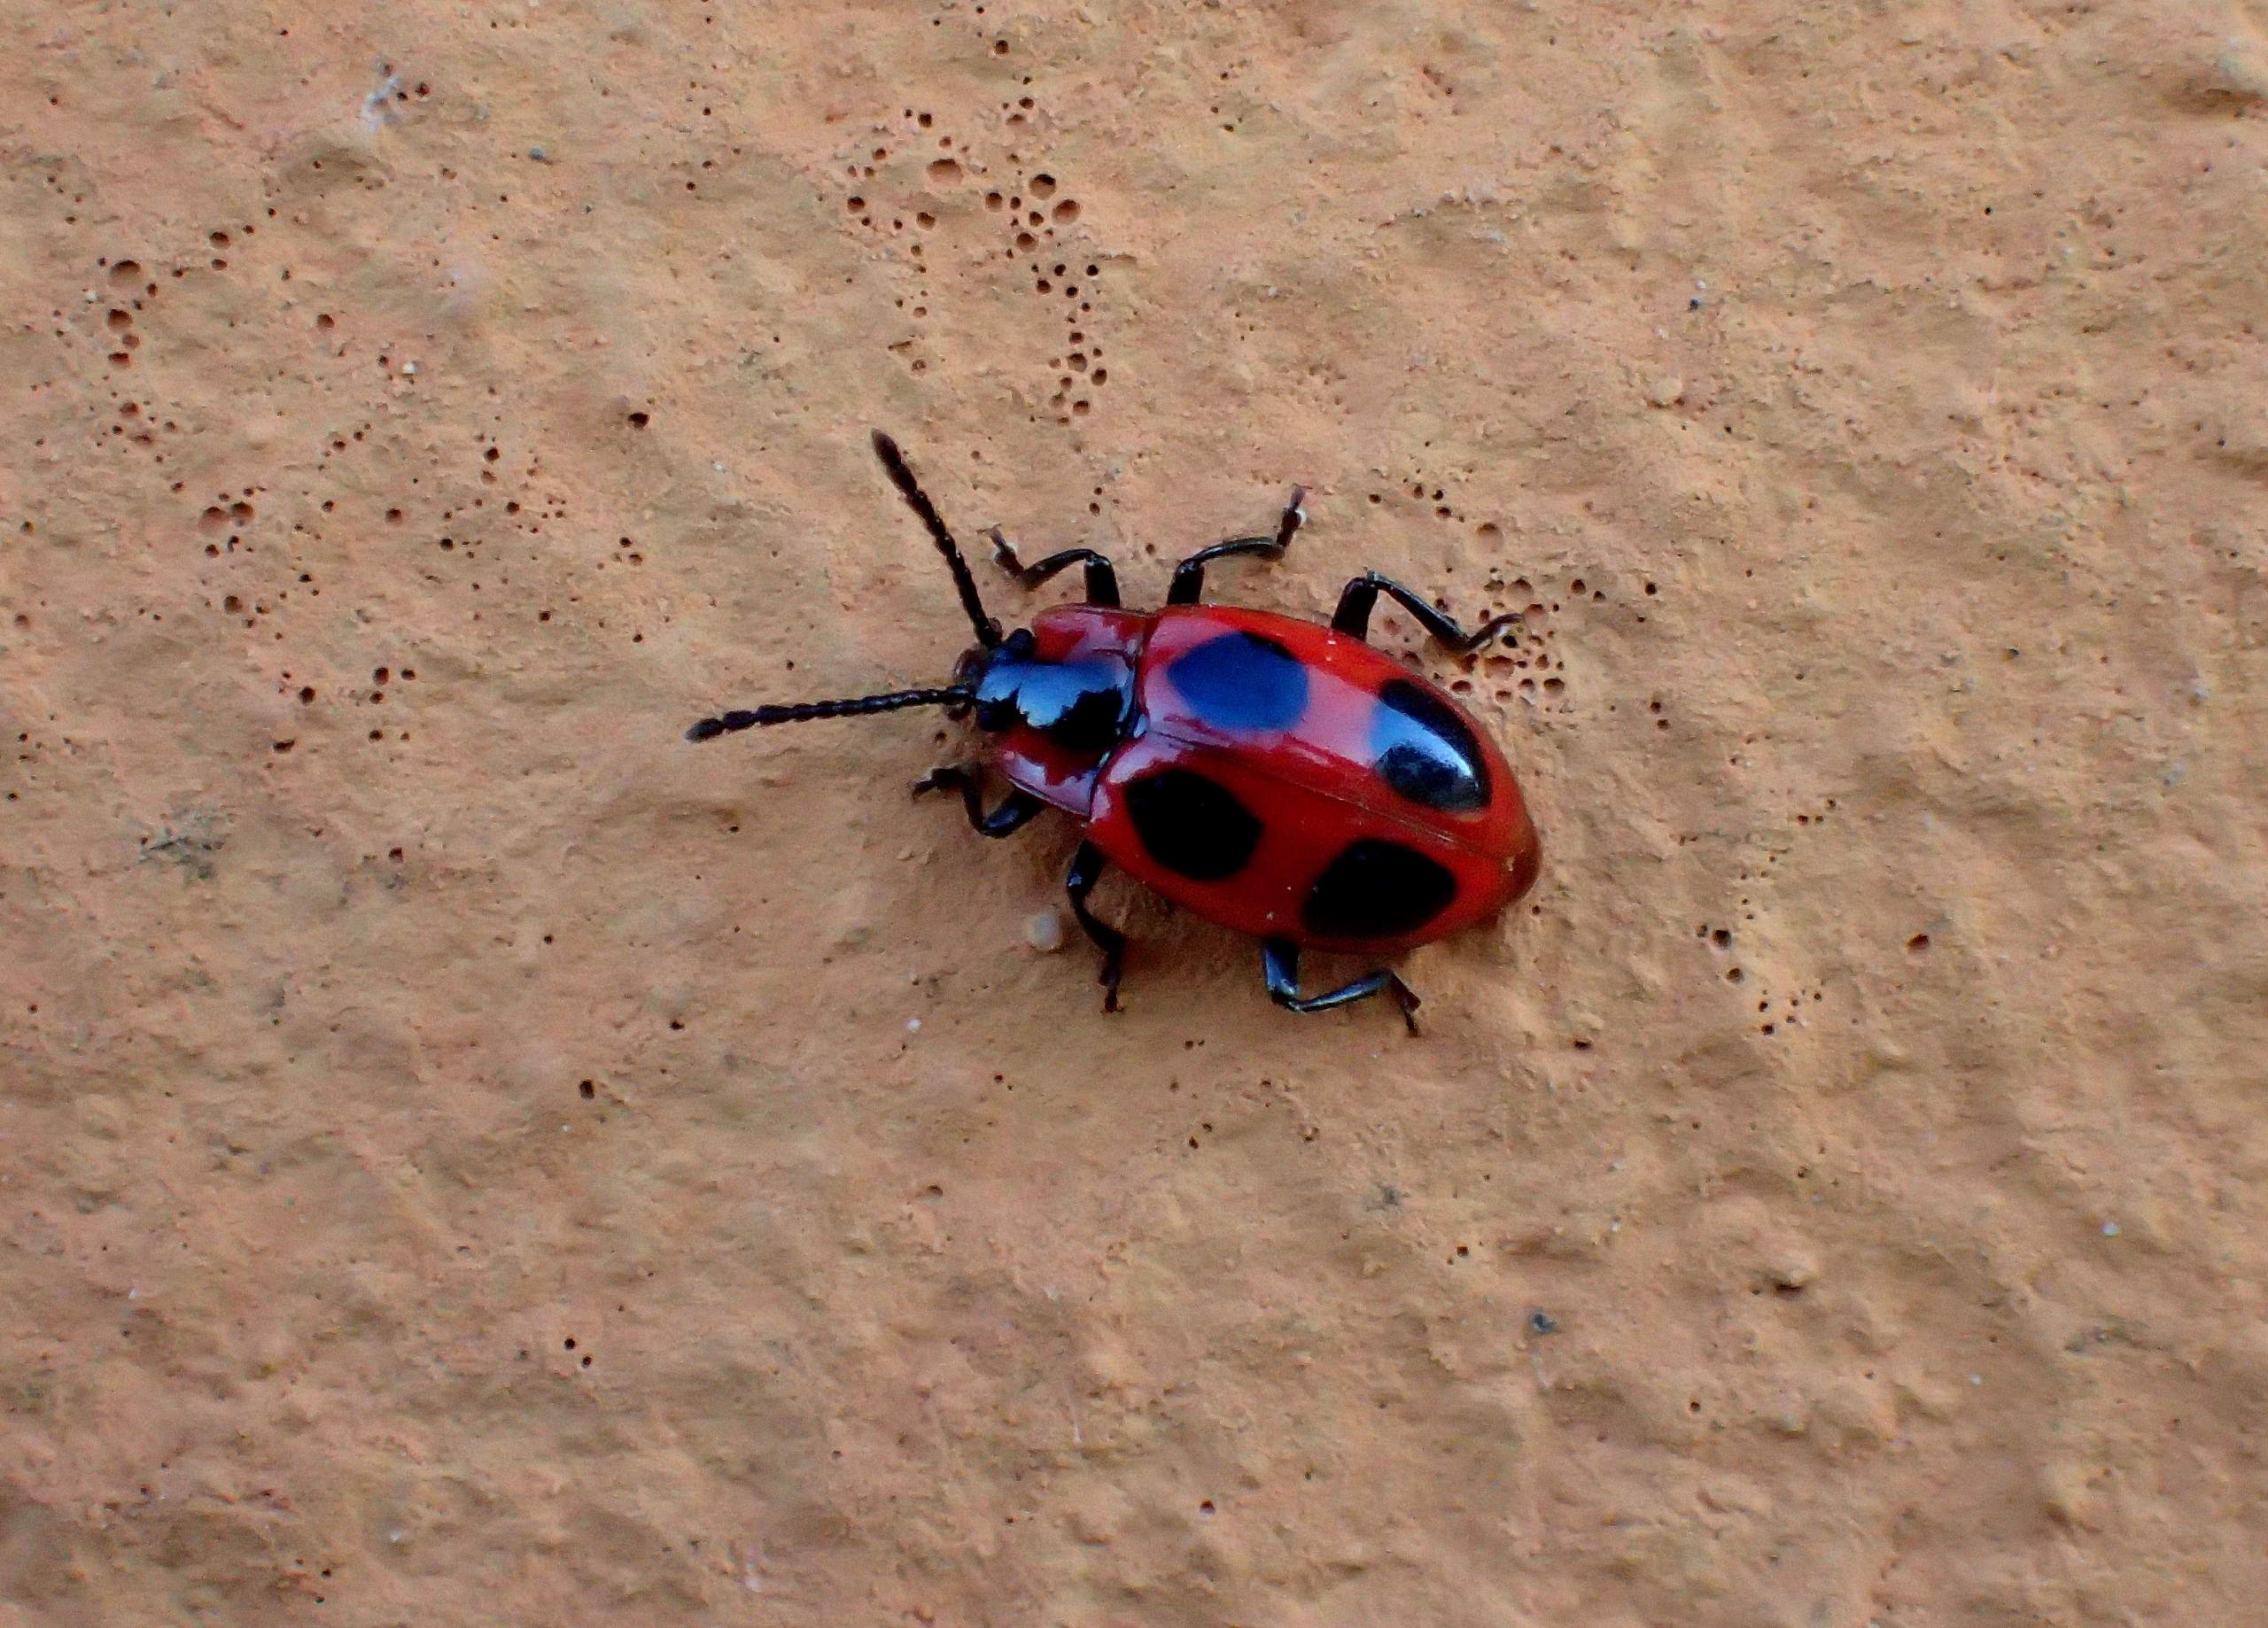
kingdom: Animalia
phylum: Arthropoda
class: Insecta
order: Coleoptera
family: Endomychidae
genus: Endomychus
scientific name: Endomychus coccineus
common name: Skarlagensvampehøne
